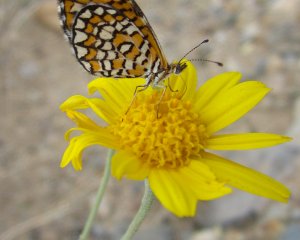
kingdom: Animalia
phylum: Arthropoda
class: Insecta
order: Lepidoptera
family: Nymphalidae
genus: Dymasia
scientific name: Dymasia dymas
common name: Tiny Checkerspot
